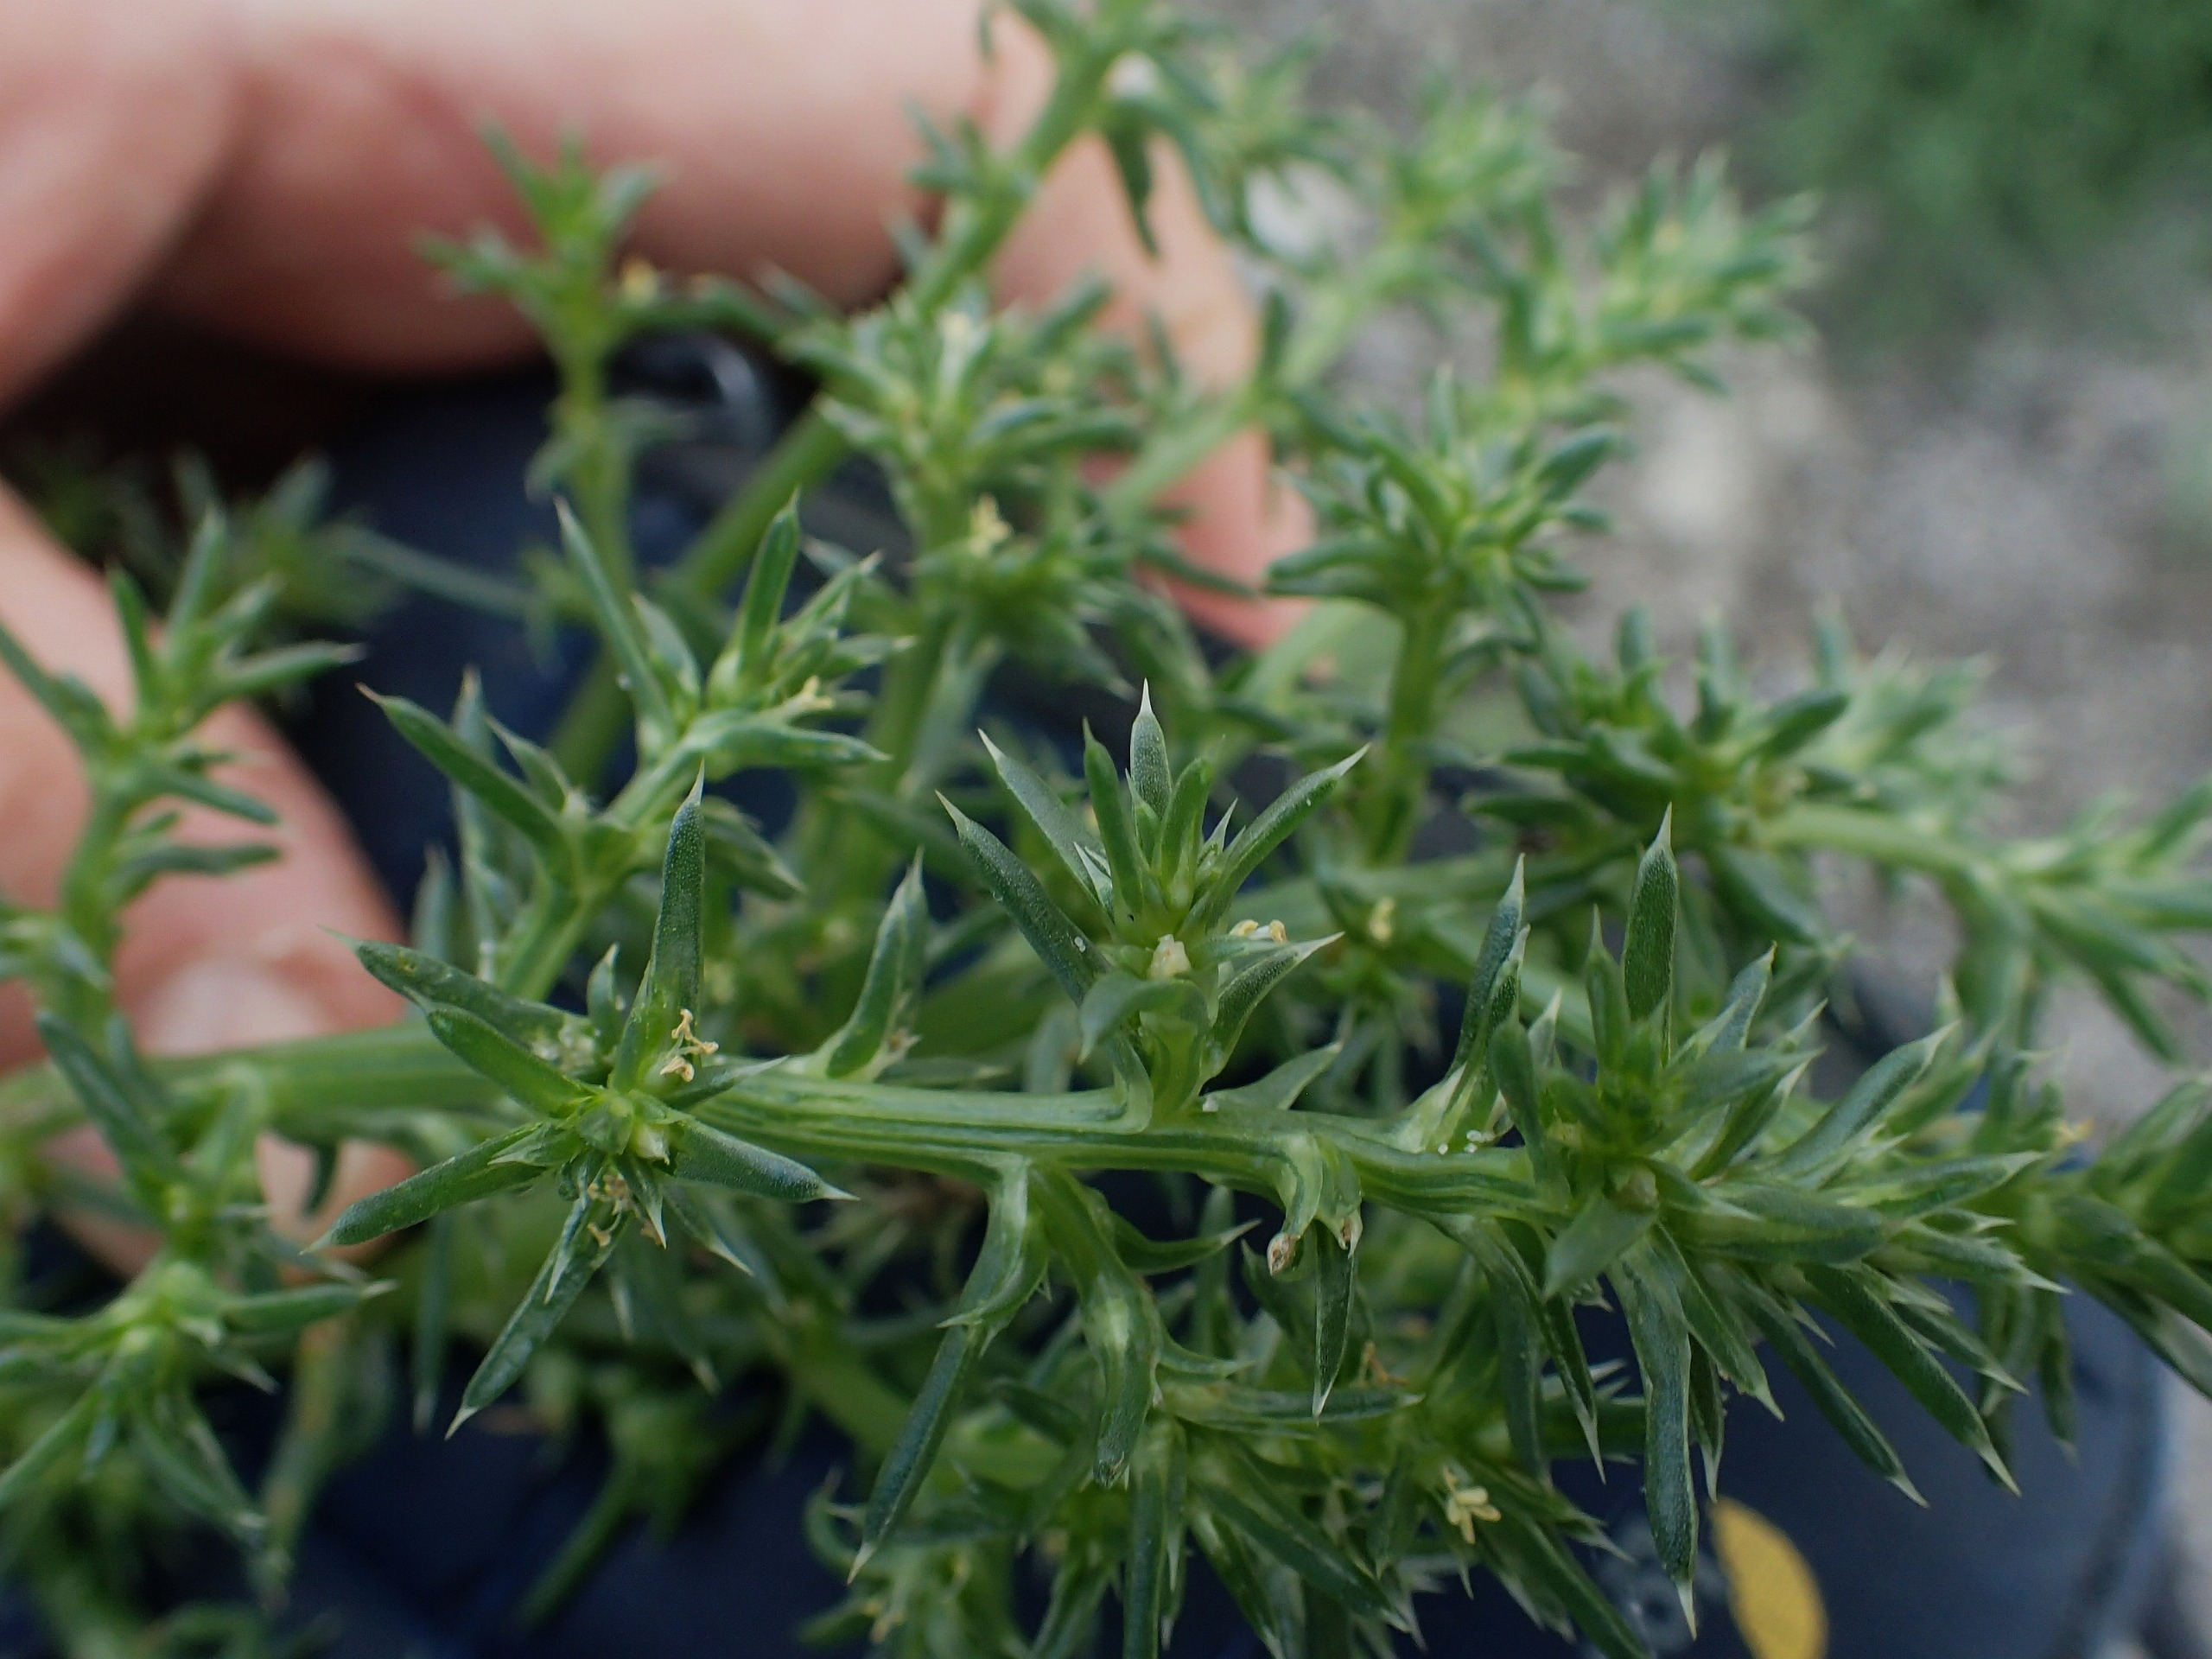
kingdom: Plantae
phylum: Tracheophyta
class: Magnoliopsida
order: Caryophyllales
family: Amaranthaceae
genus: Salsola
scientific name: Salsola kali
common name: Sodaurt
